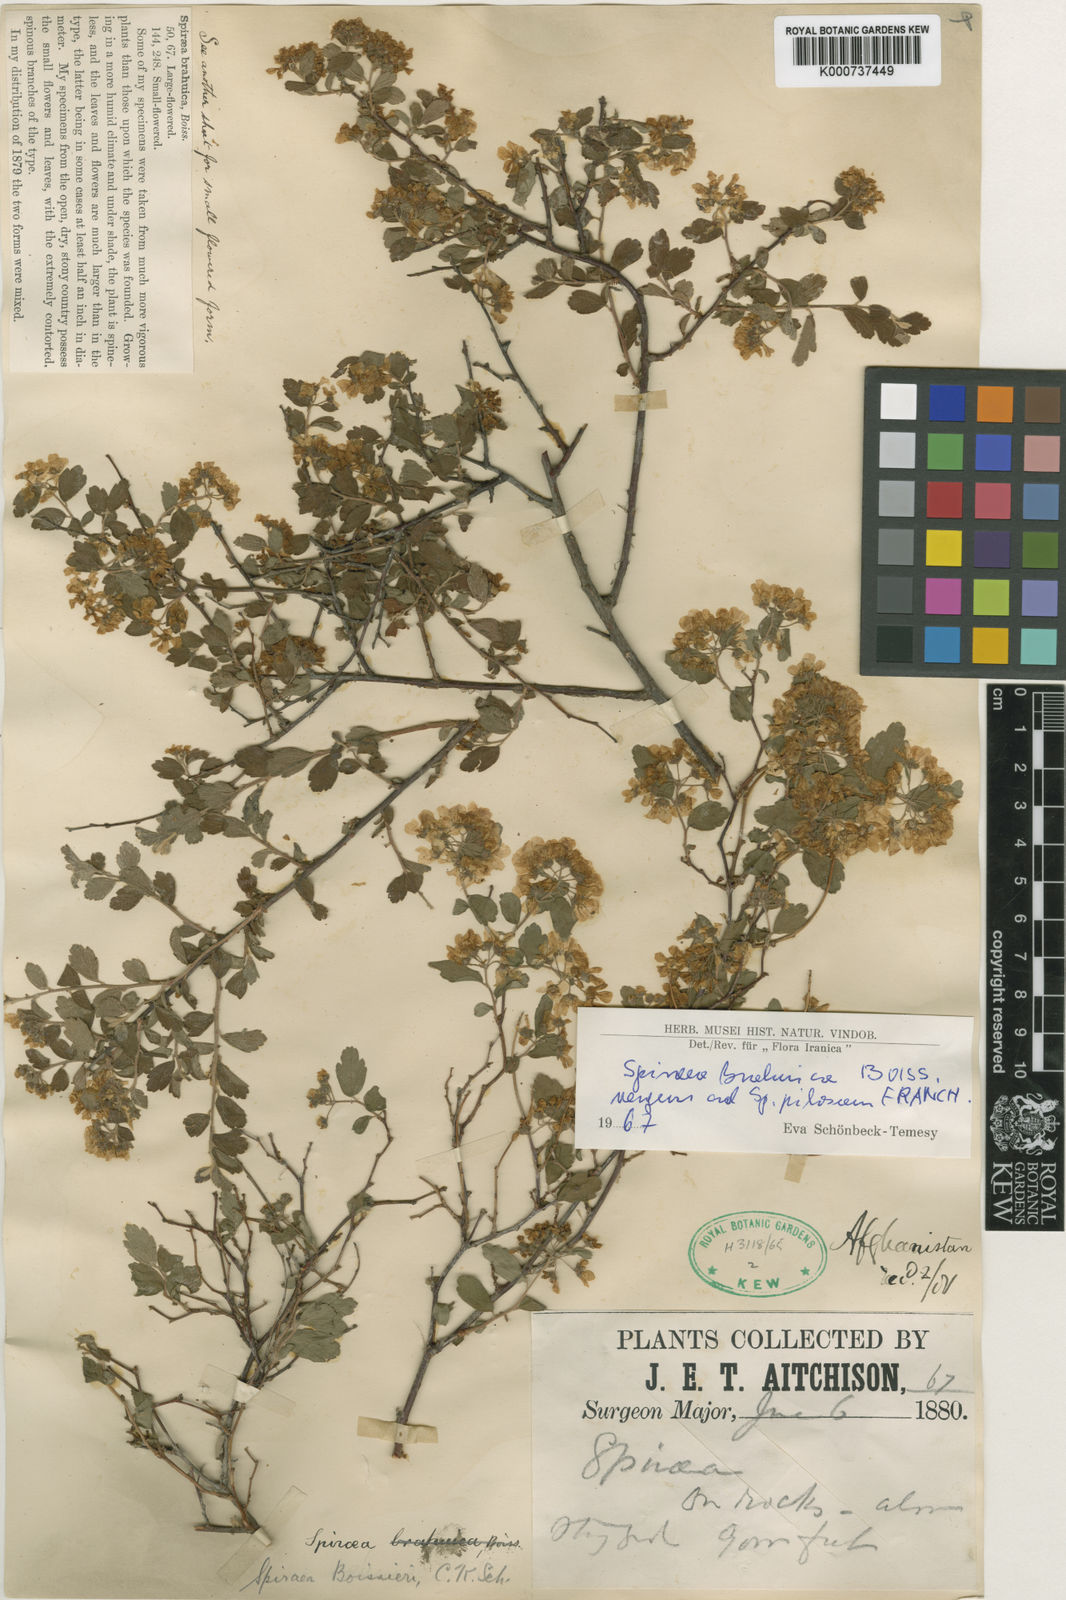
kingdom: Plantae
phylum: Tracheophyta
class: Magnoliopsida
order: Rosales
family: Rosaceae
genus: Spiraea
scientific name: Spiraea
